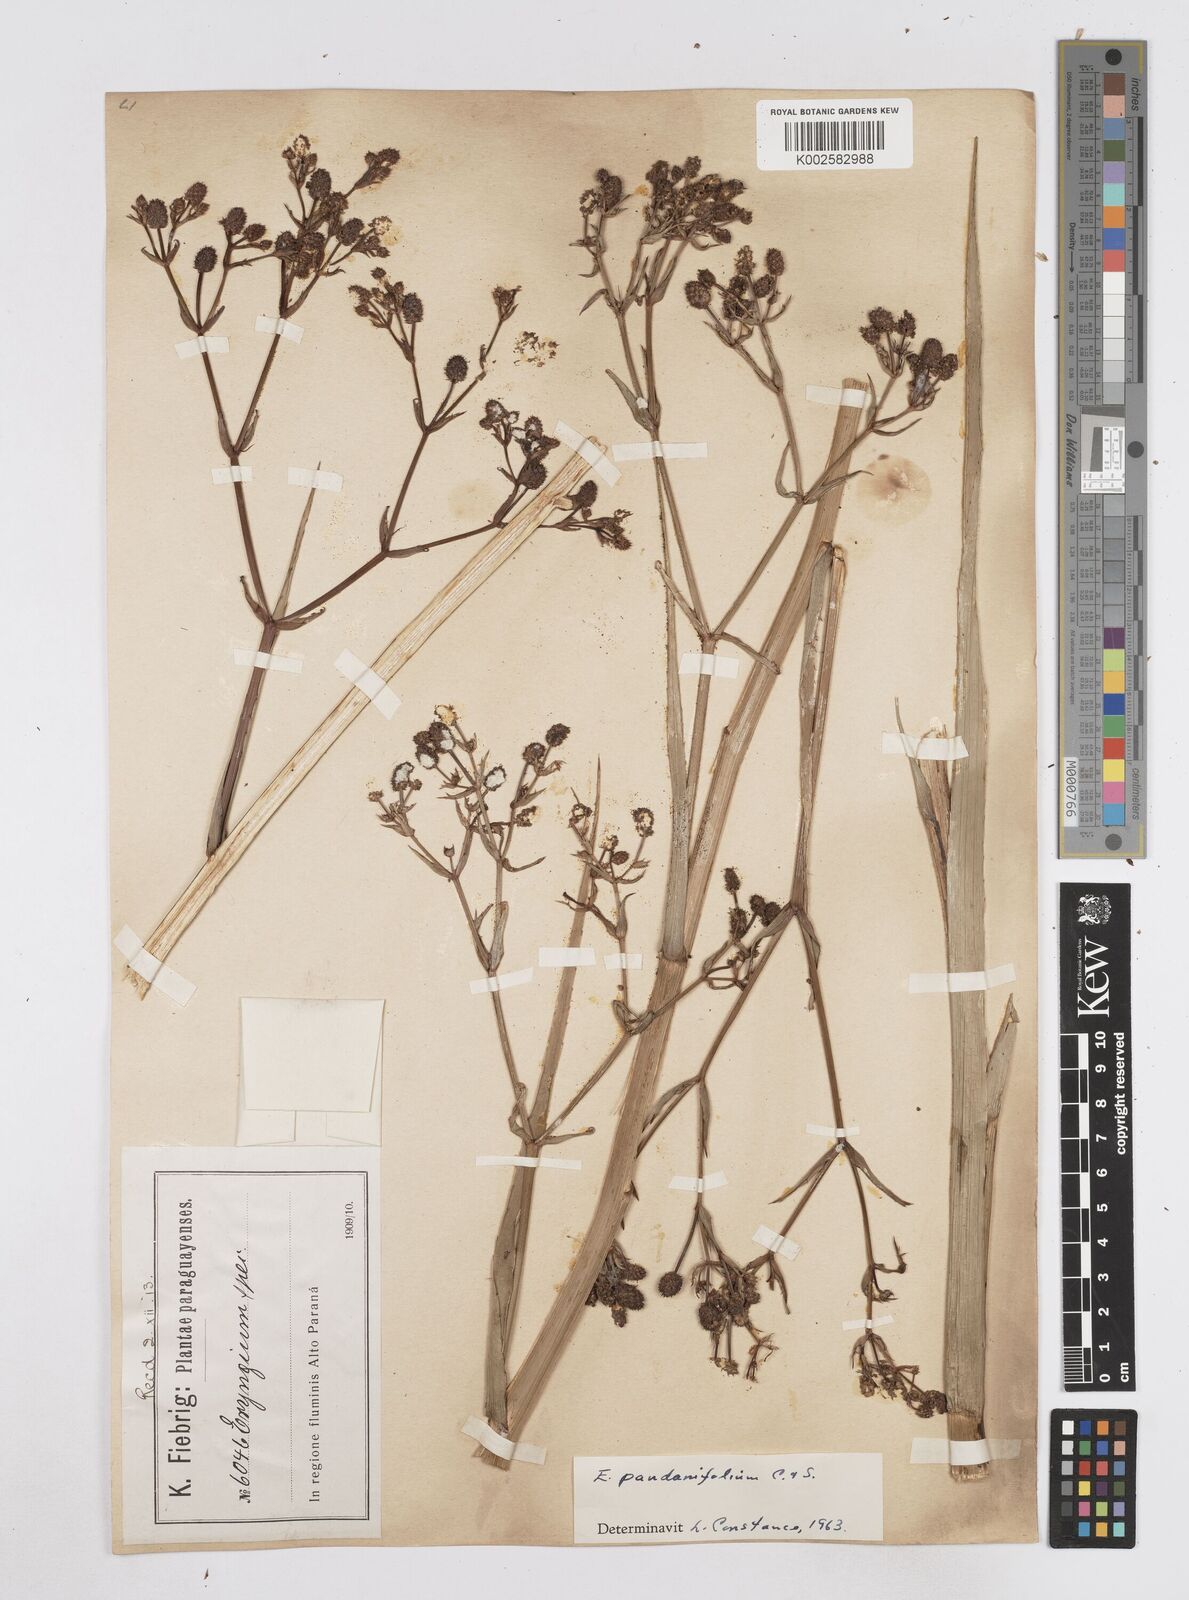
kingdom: Plantae
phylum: Tracheophyta
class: Magnoliopsida
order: Apiales
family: Apiaceae
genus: Eryngium
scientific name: Eryngium pandanifolium
